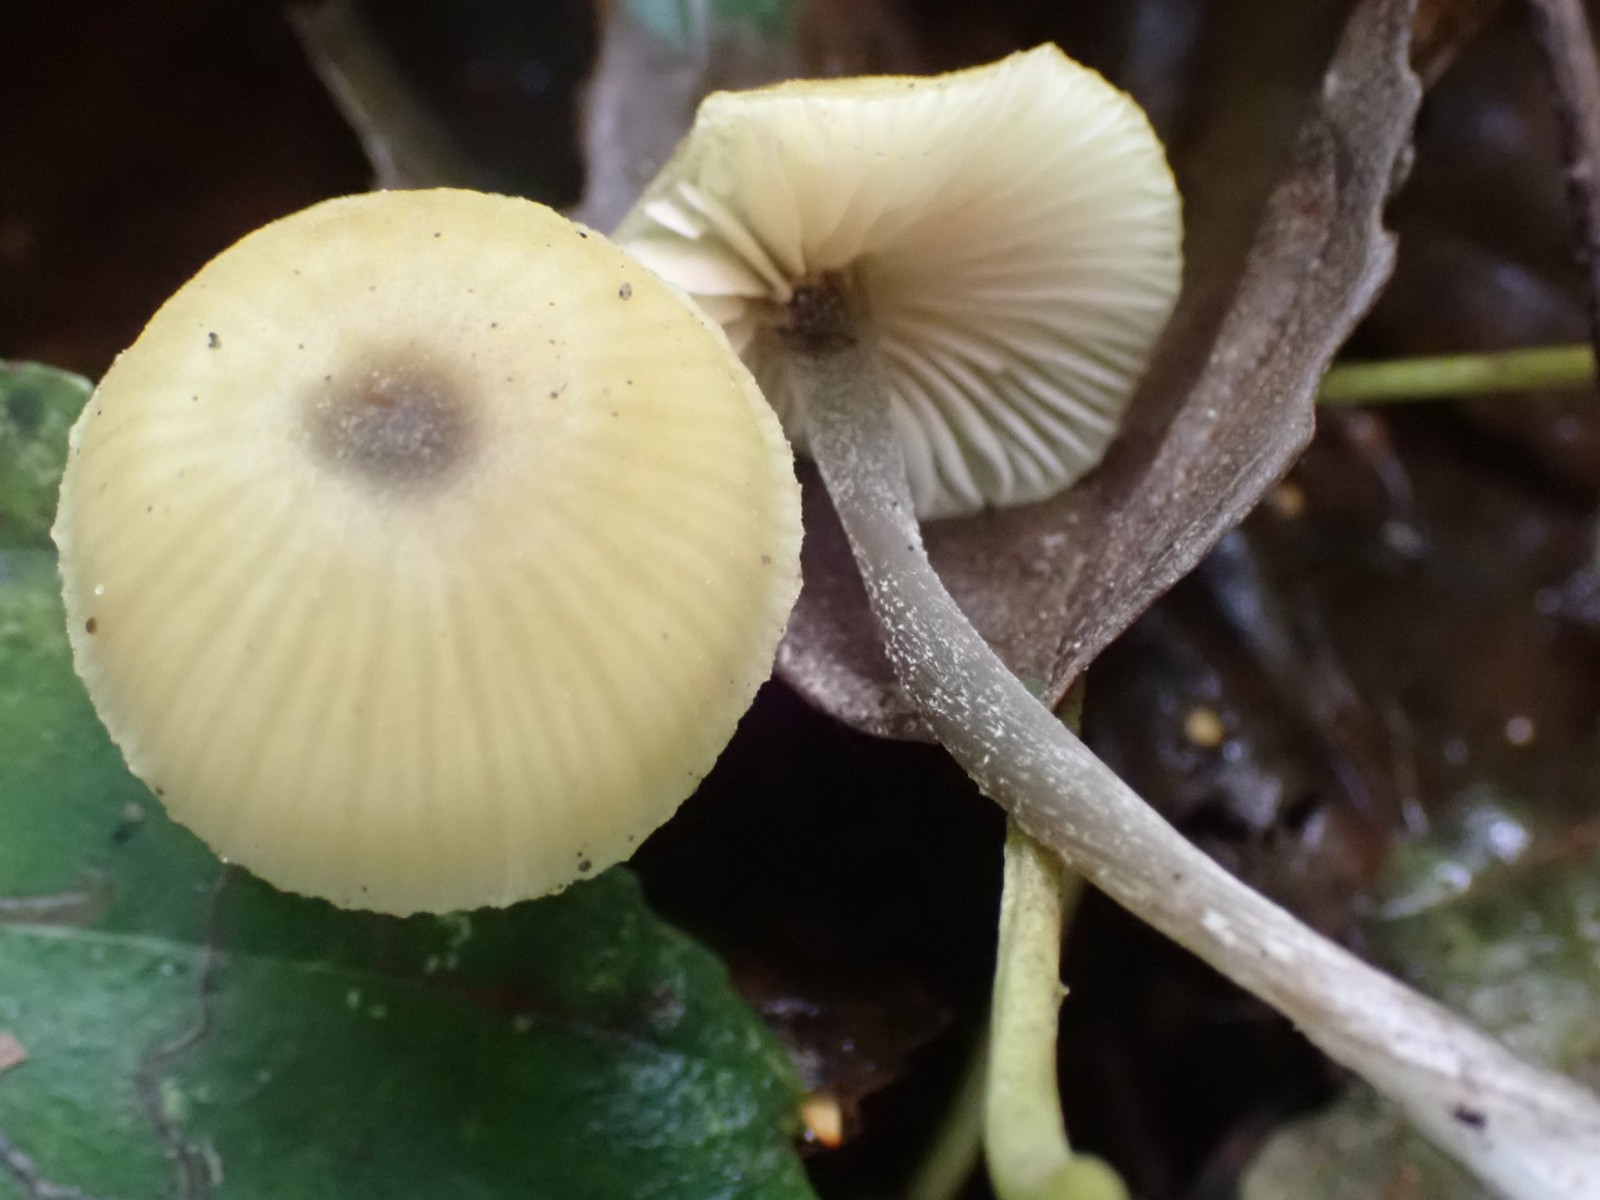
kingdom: Fungi
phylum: Basidiomycota
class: Agaricomycetes
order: Agaricales
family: Entolomataceae
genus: Entoloma
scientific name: Entoloma pleopodium
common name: duftende rødblad
